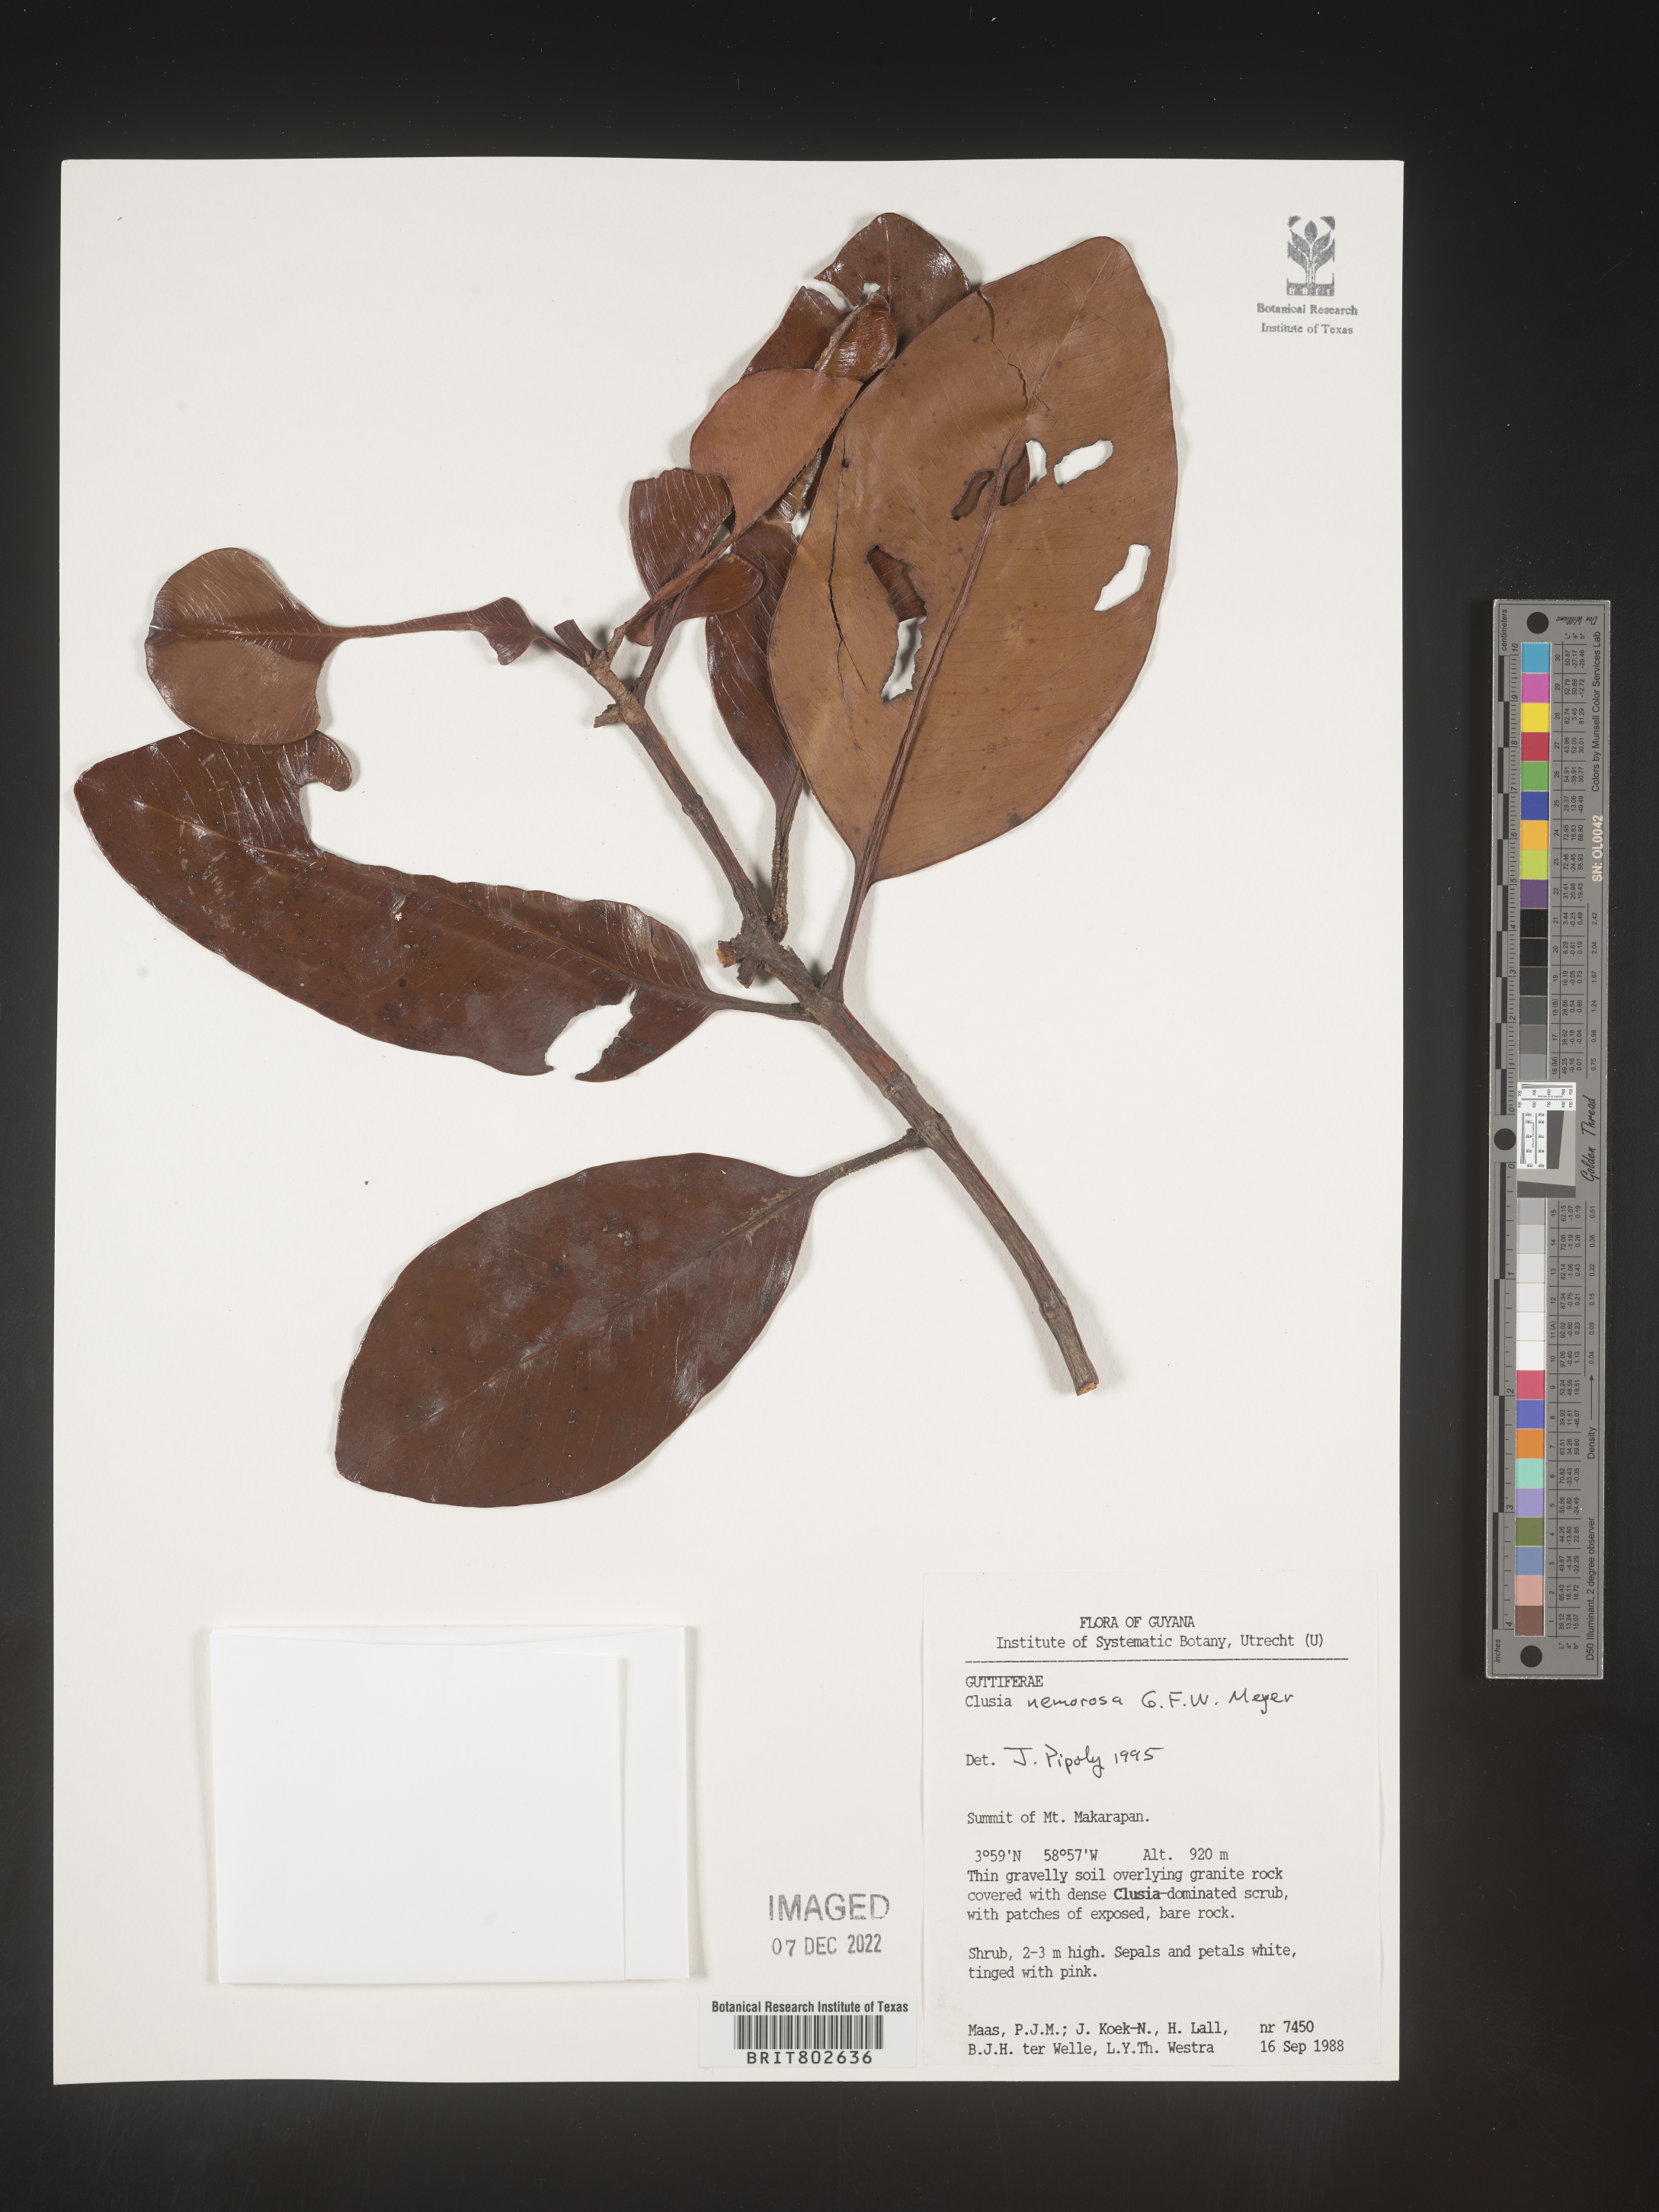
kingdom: Plantae
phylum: Tracheophyta
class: Magnoliopsida
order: Malpighiales
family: Clusiaceae
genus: Clusia
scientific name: Clusia nemorosa
